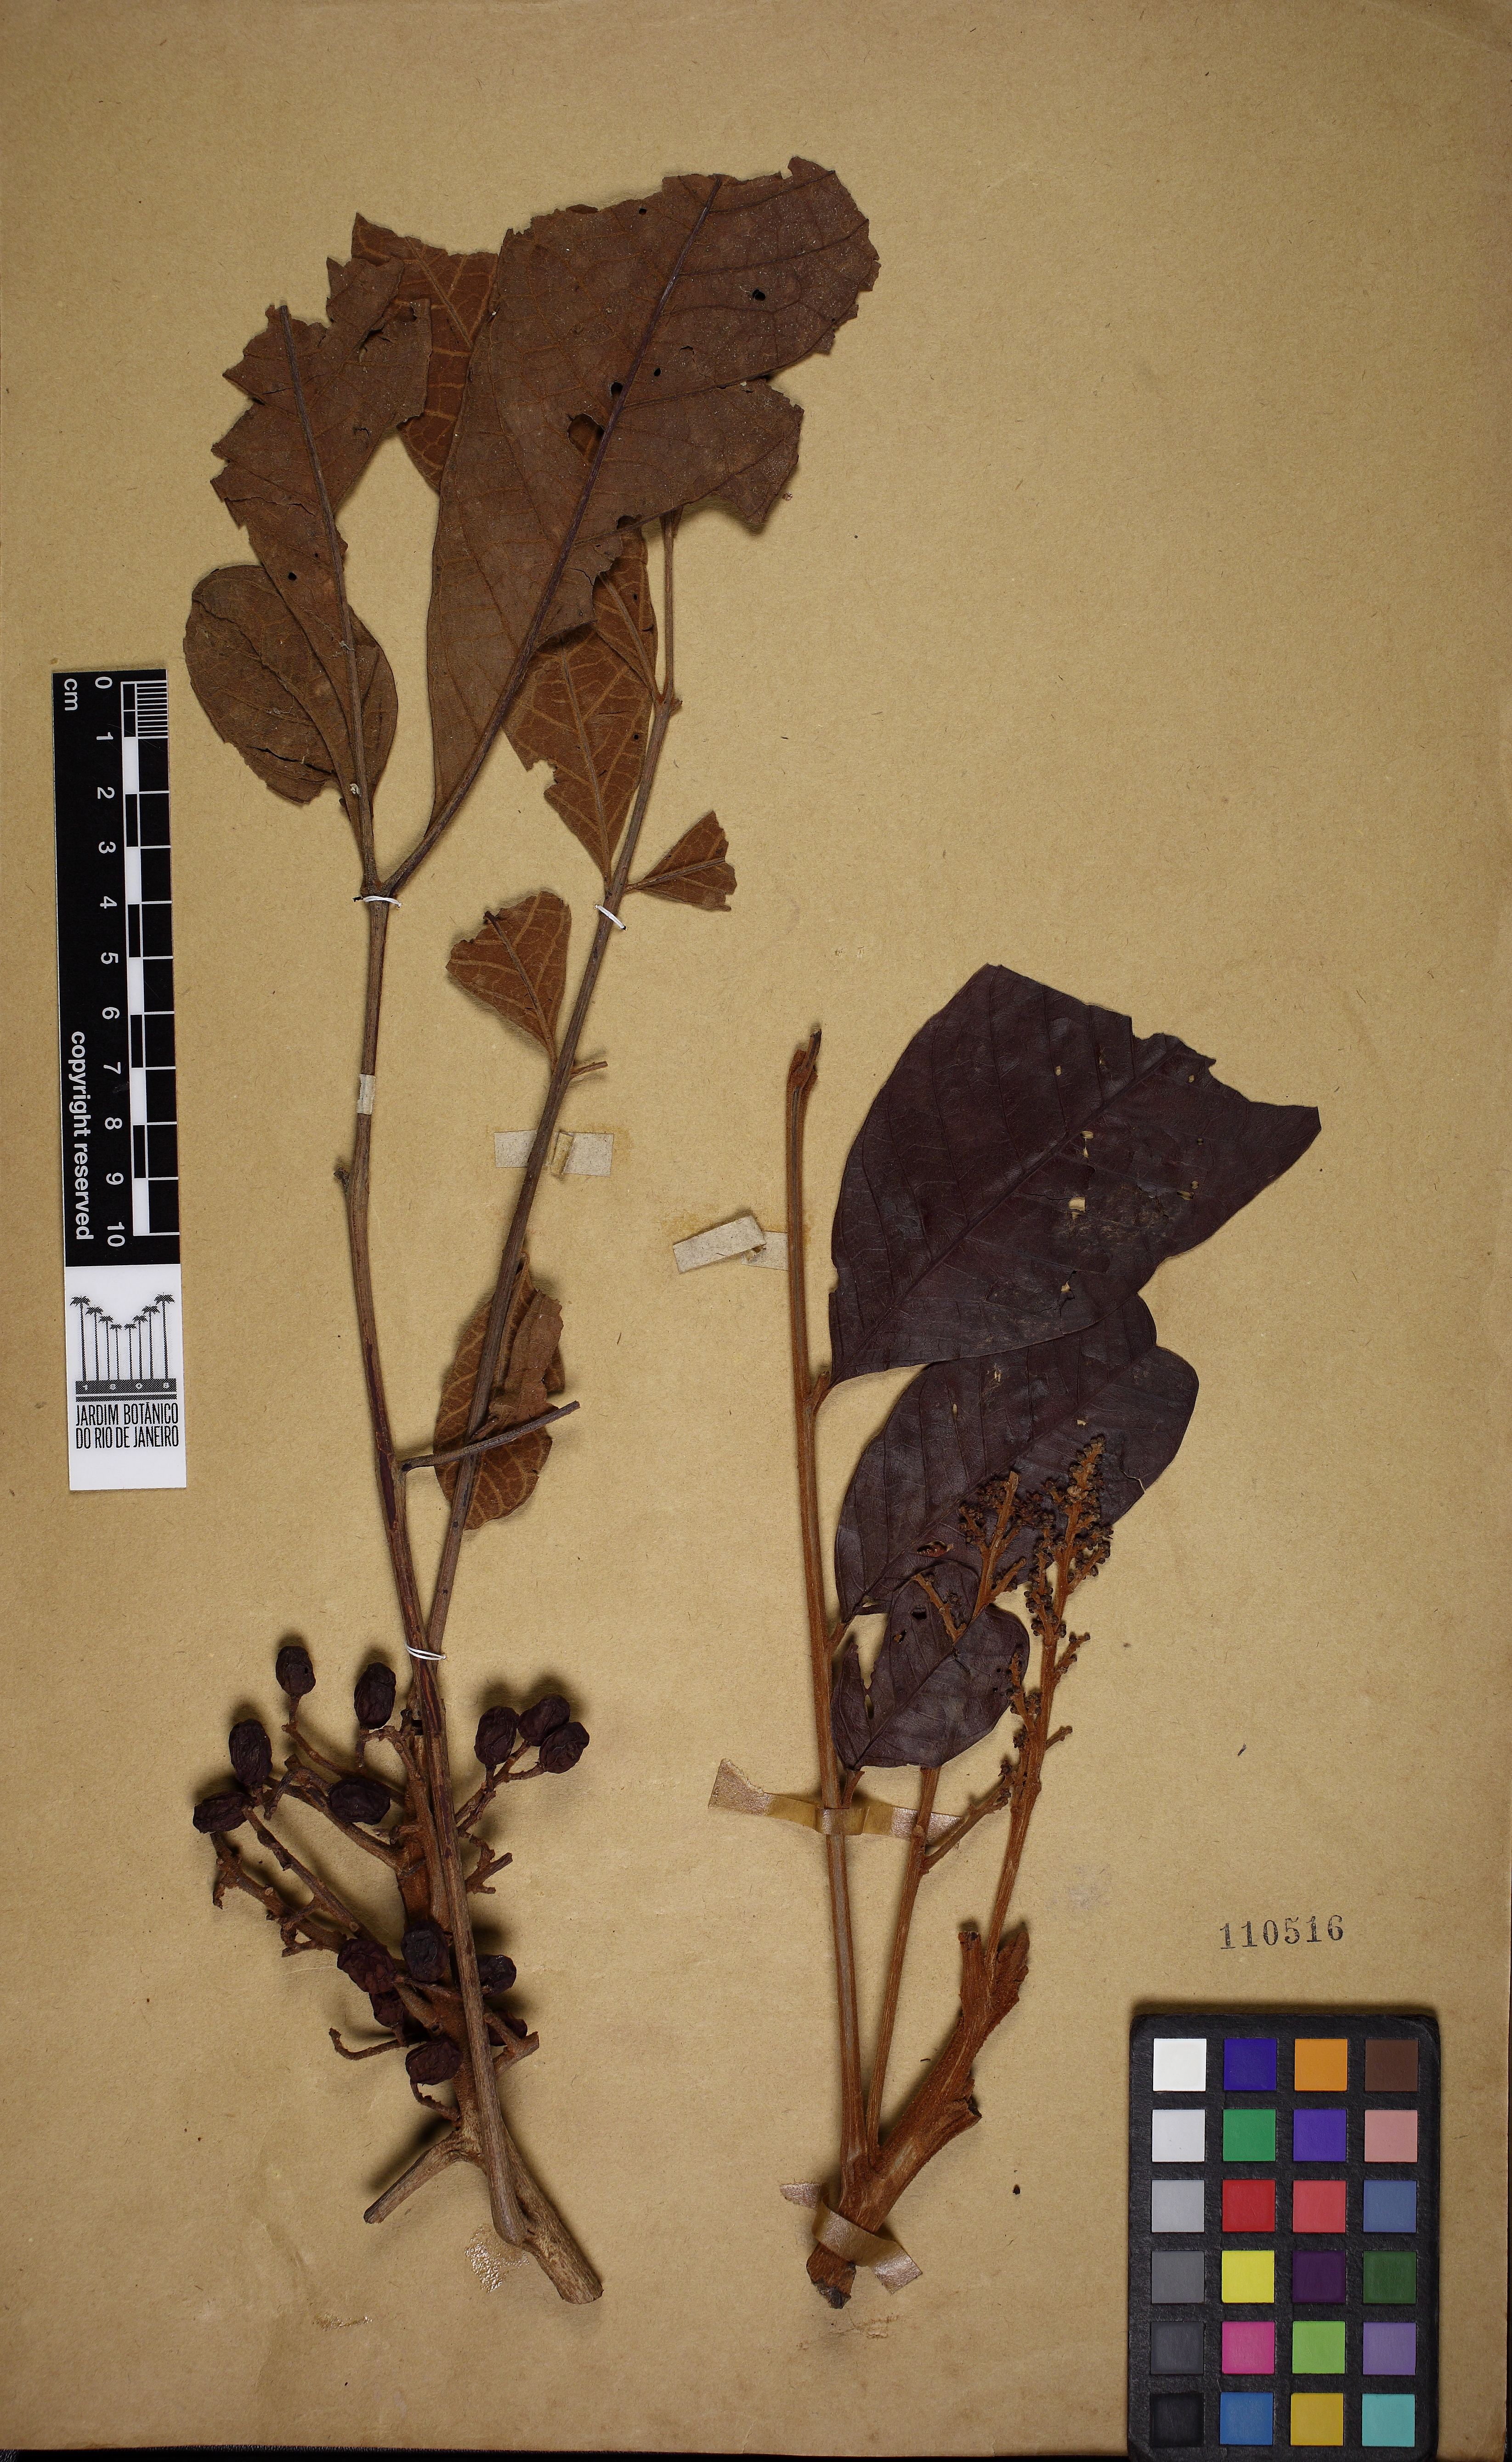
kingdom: Plantae
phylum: Tracheophyta
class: Magnoliopsida
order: Sapindales
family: Anacardiaceae
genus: Tapirira
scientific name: Tapirira obtusa
